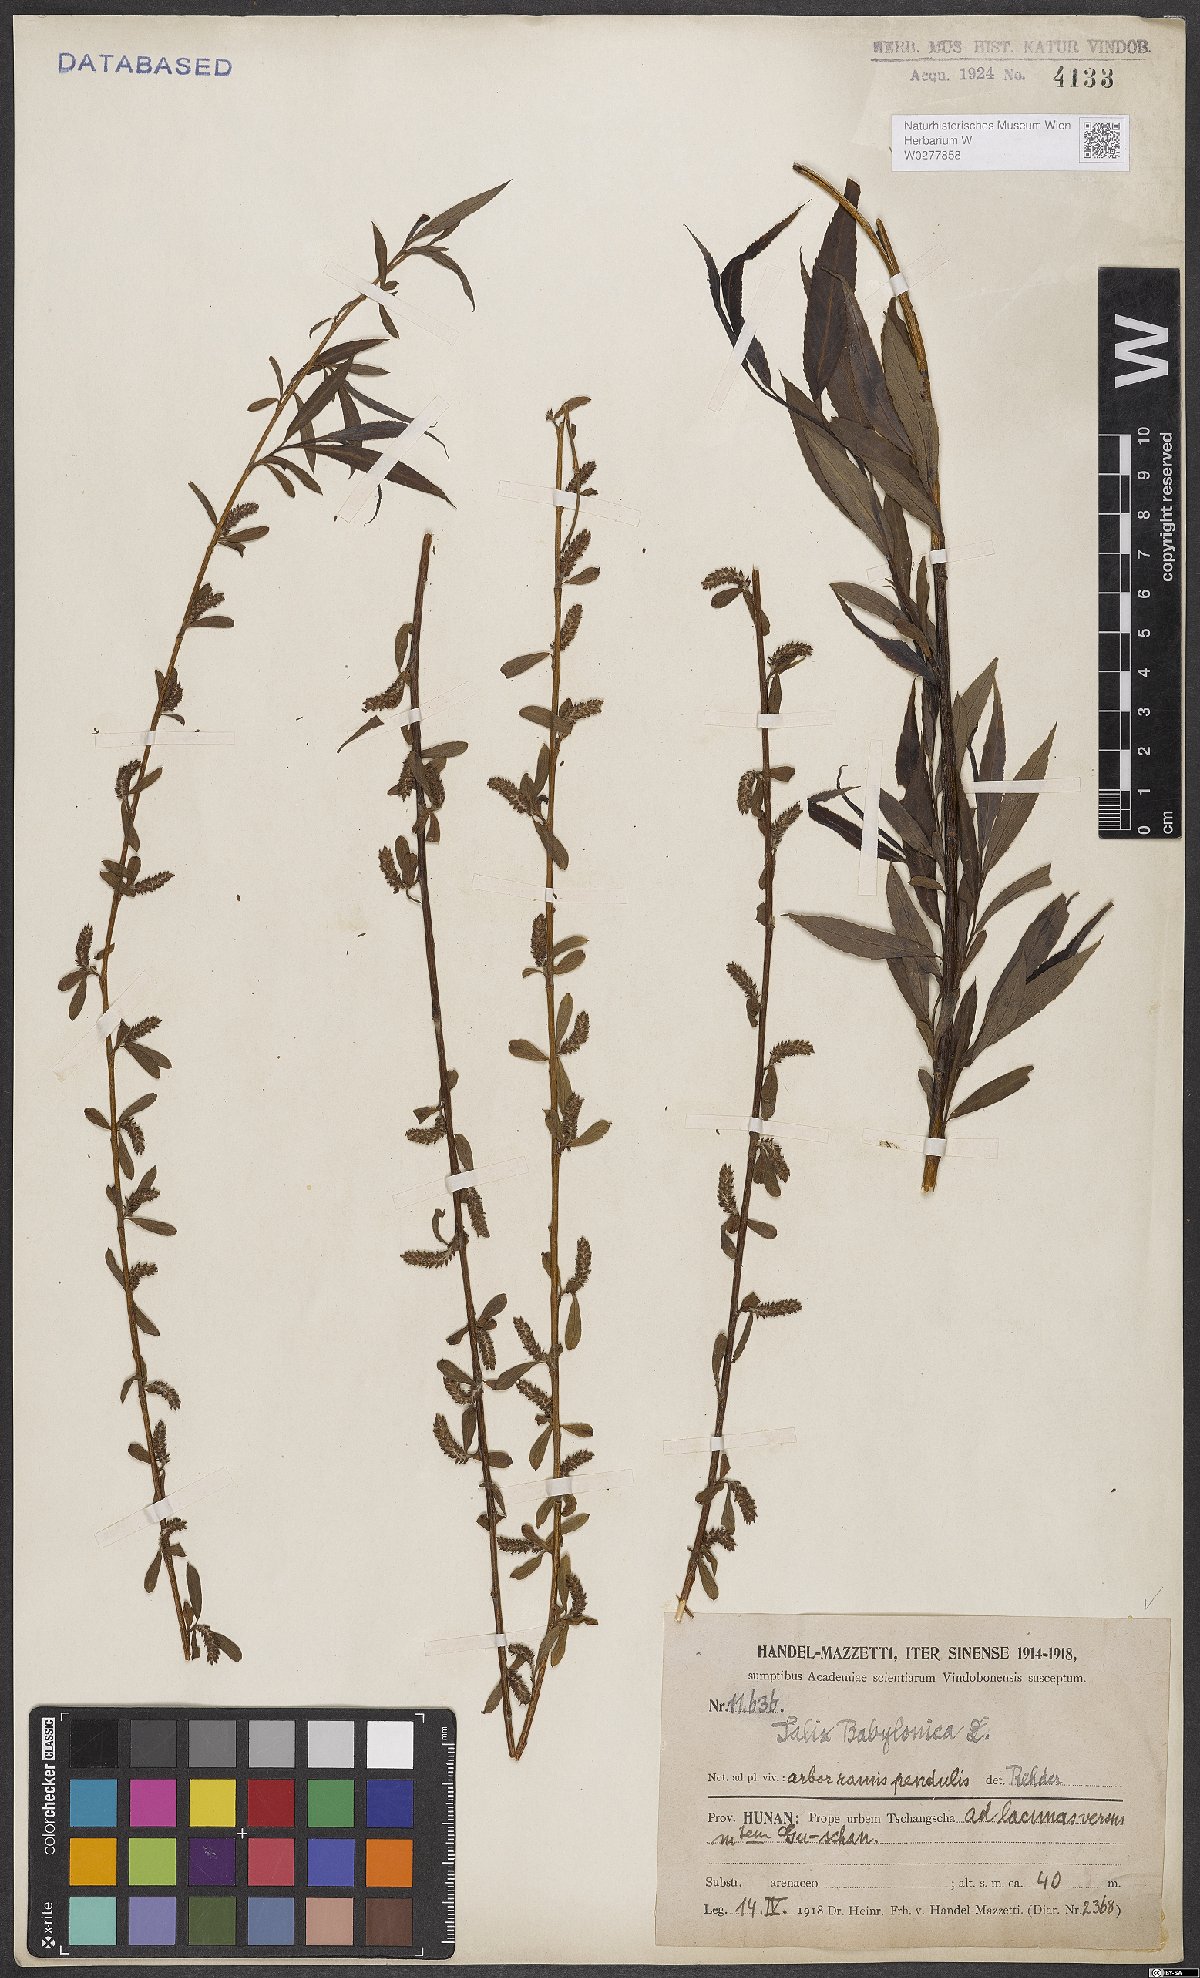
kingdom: Plantae
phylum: Tracheophyta
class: Magnoliopsida
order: Malpighiales
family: Salicaceae
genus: Salix
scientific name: Salix babylonica
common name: Weeping willow
